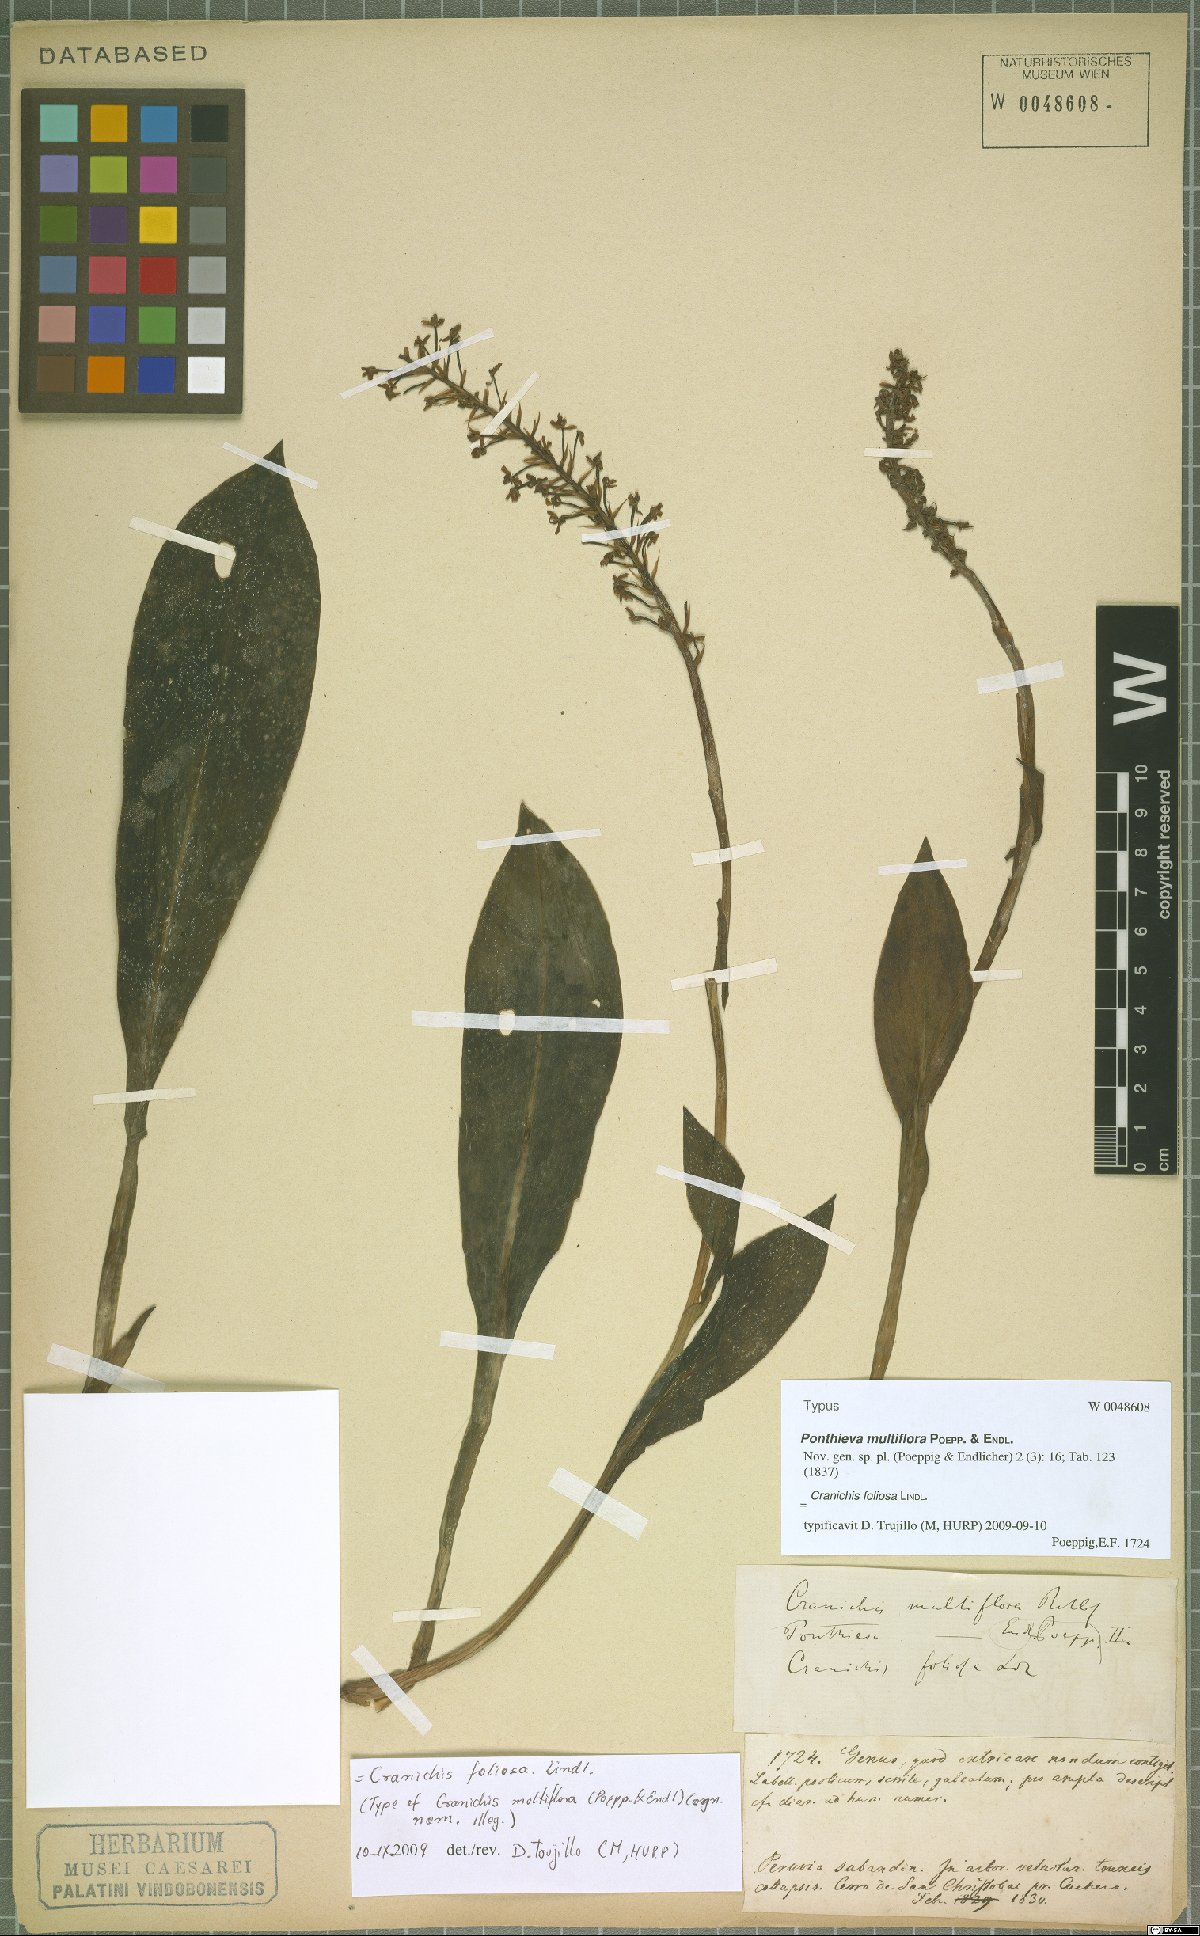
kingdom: Plantae
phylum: Tracheophyta
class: Liliopsida
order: Asparagales
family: Orchidaceae
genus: Cranichis
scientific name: Cranichis foliosa
